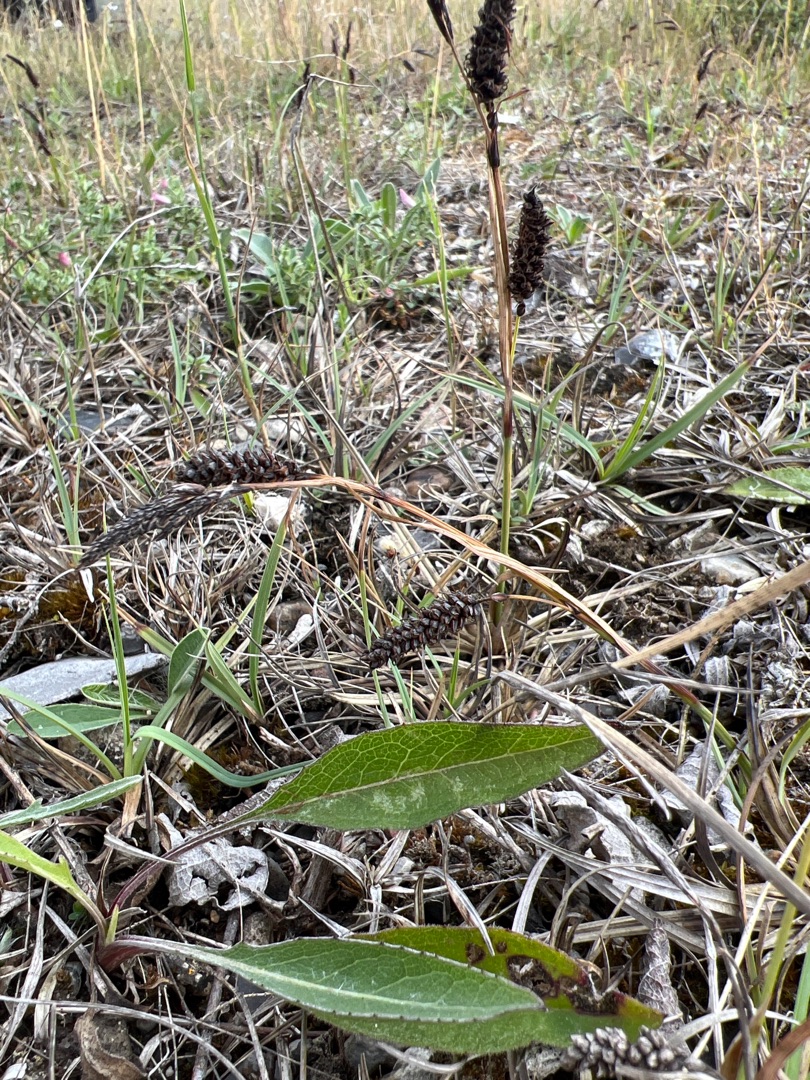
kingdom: Plantae
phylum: Tracheophyta
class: Liliopsida
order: Poales
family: Cyperaceae
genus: Carex
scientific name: Carex flacca
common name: Blågrøn star
